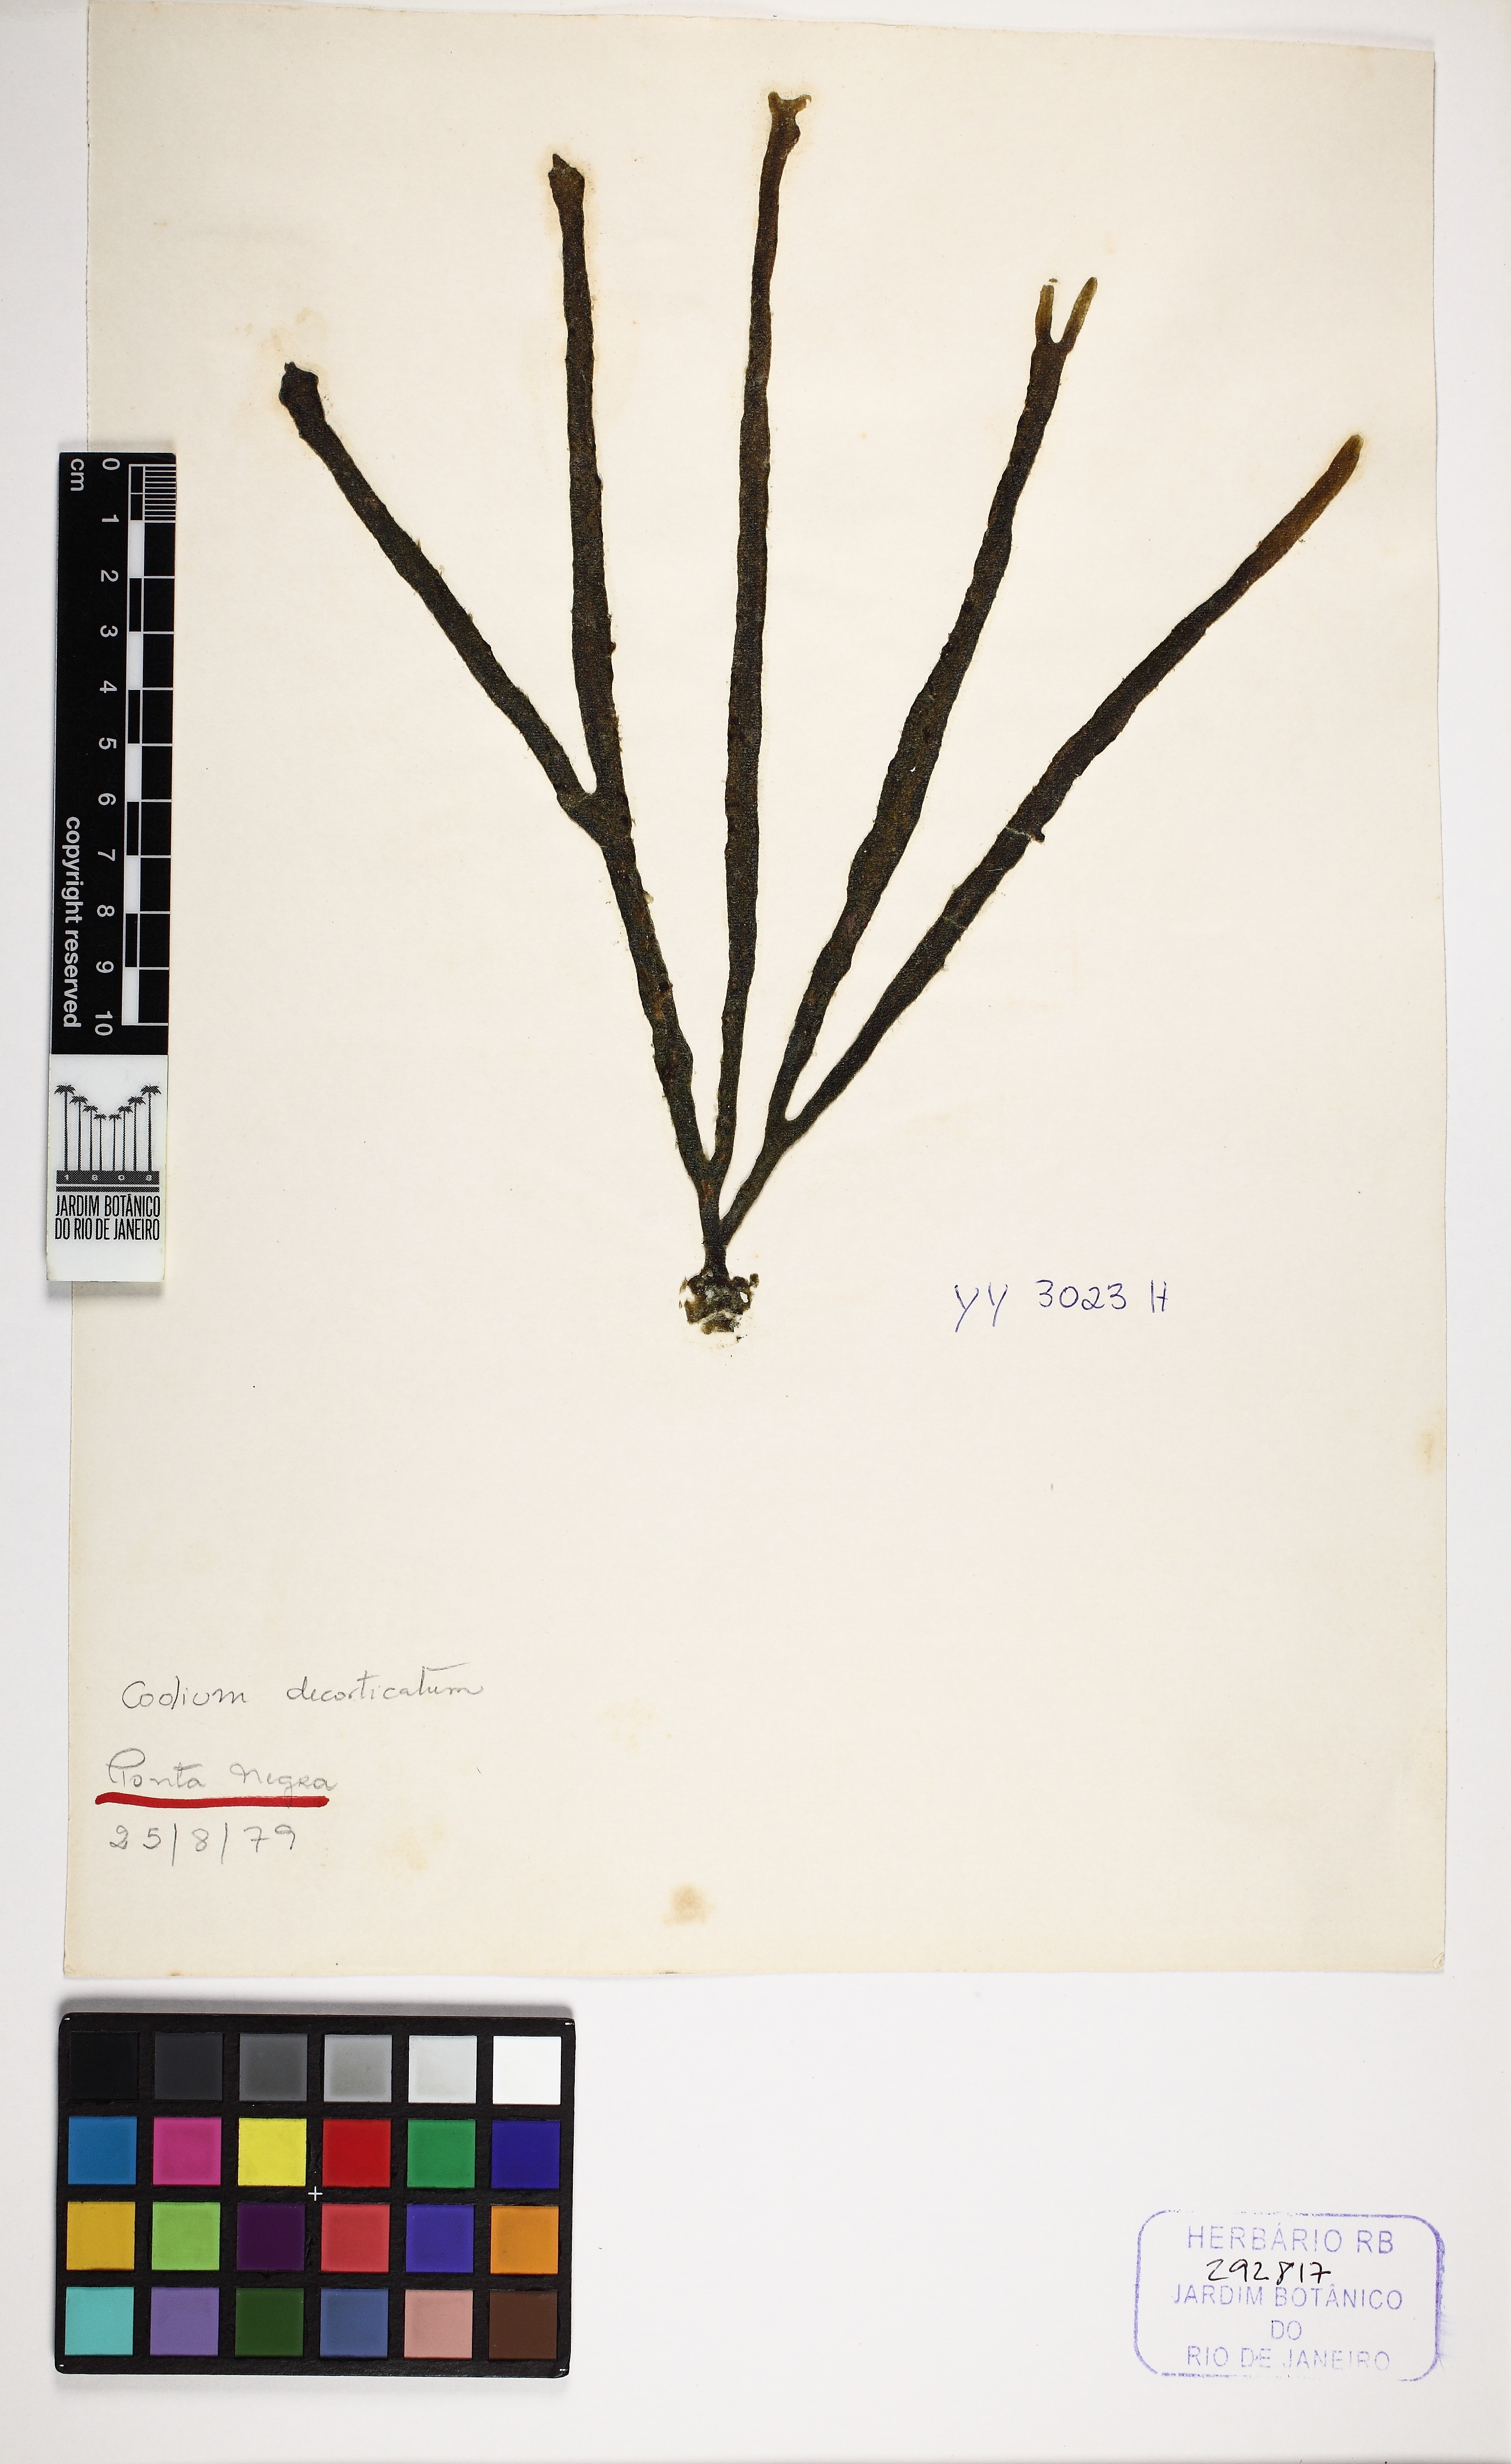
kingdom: Plantae
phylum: Chlorophyta
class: Ulvophyceae
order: Bryopsidales
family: Codiaceae
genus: Codium
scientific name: Codium decorticatum
